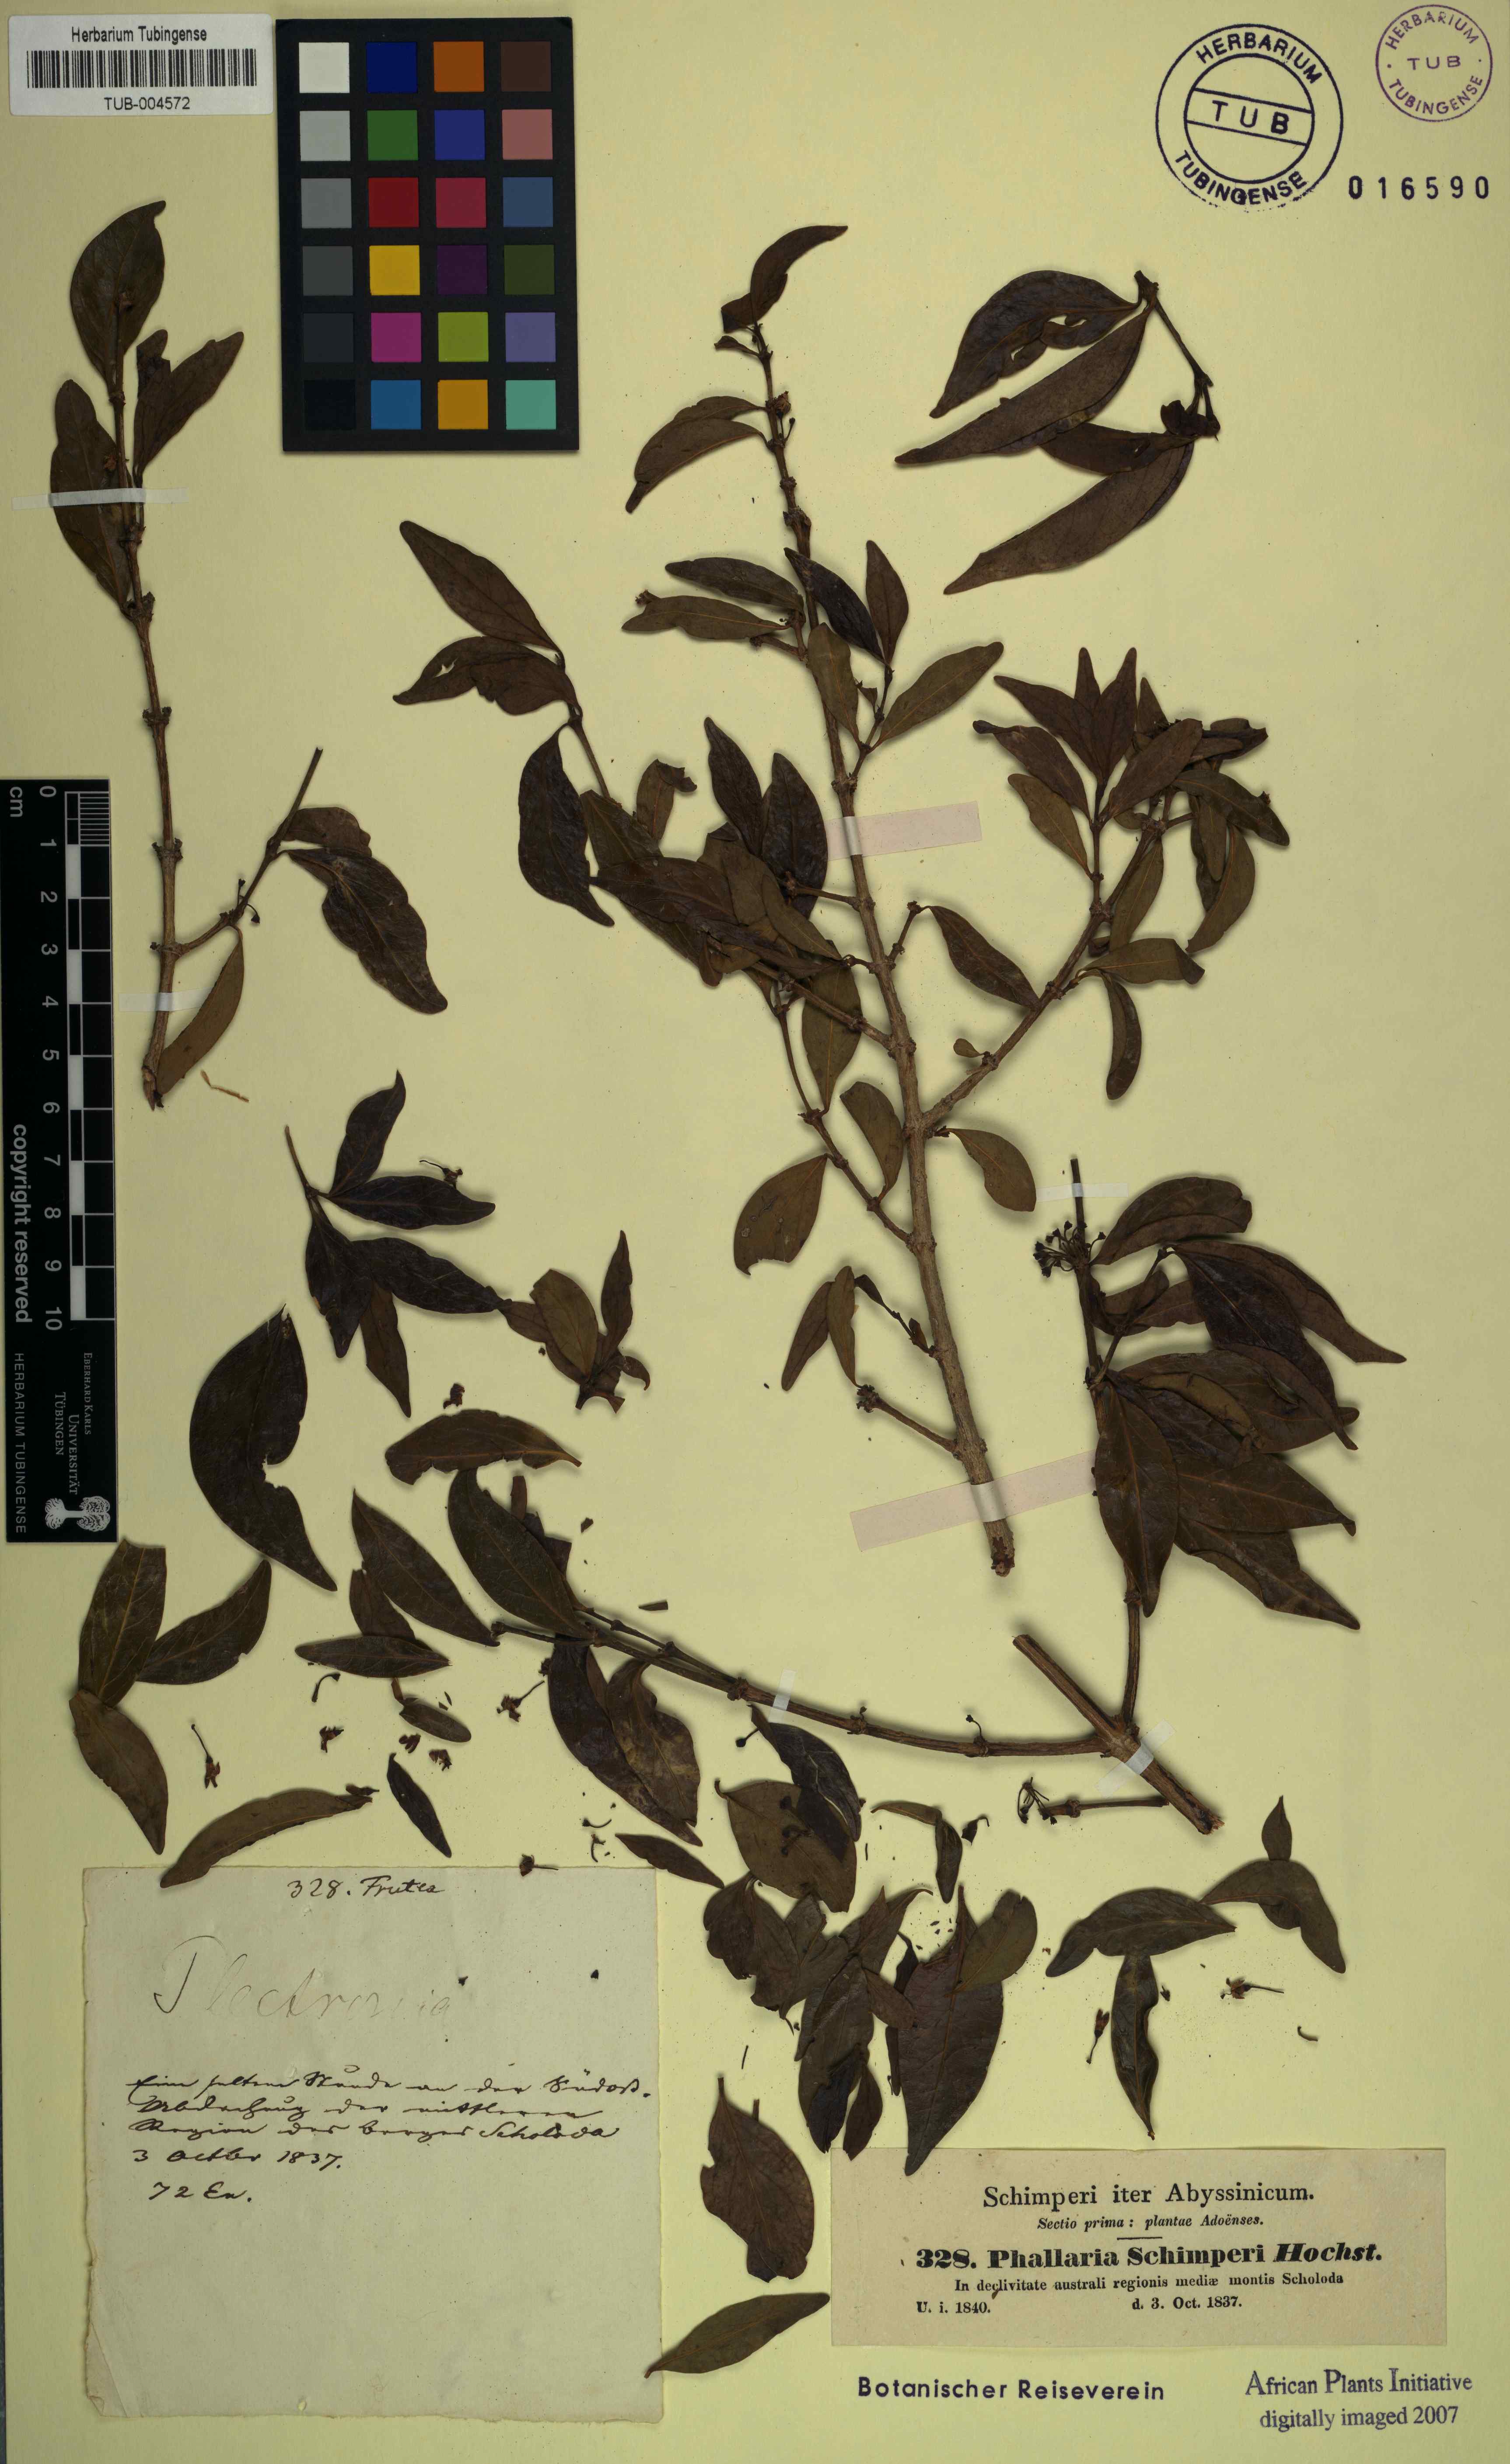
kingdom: Plantae
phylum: Tracheophyta
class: Magnoliopsida
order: Myrtales
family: Penaeaceae
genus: Olinia
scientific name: Olinia Plectronia schimperi
